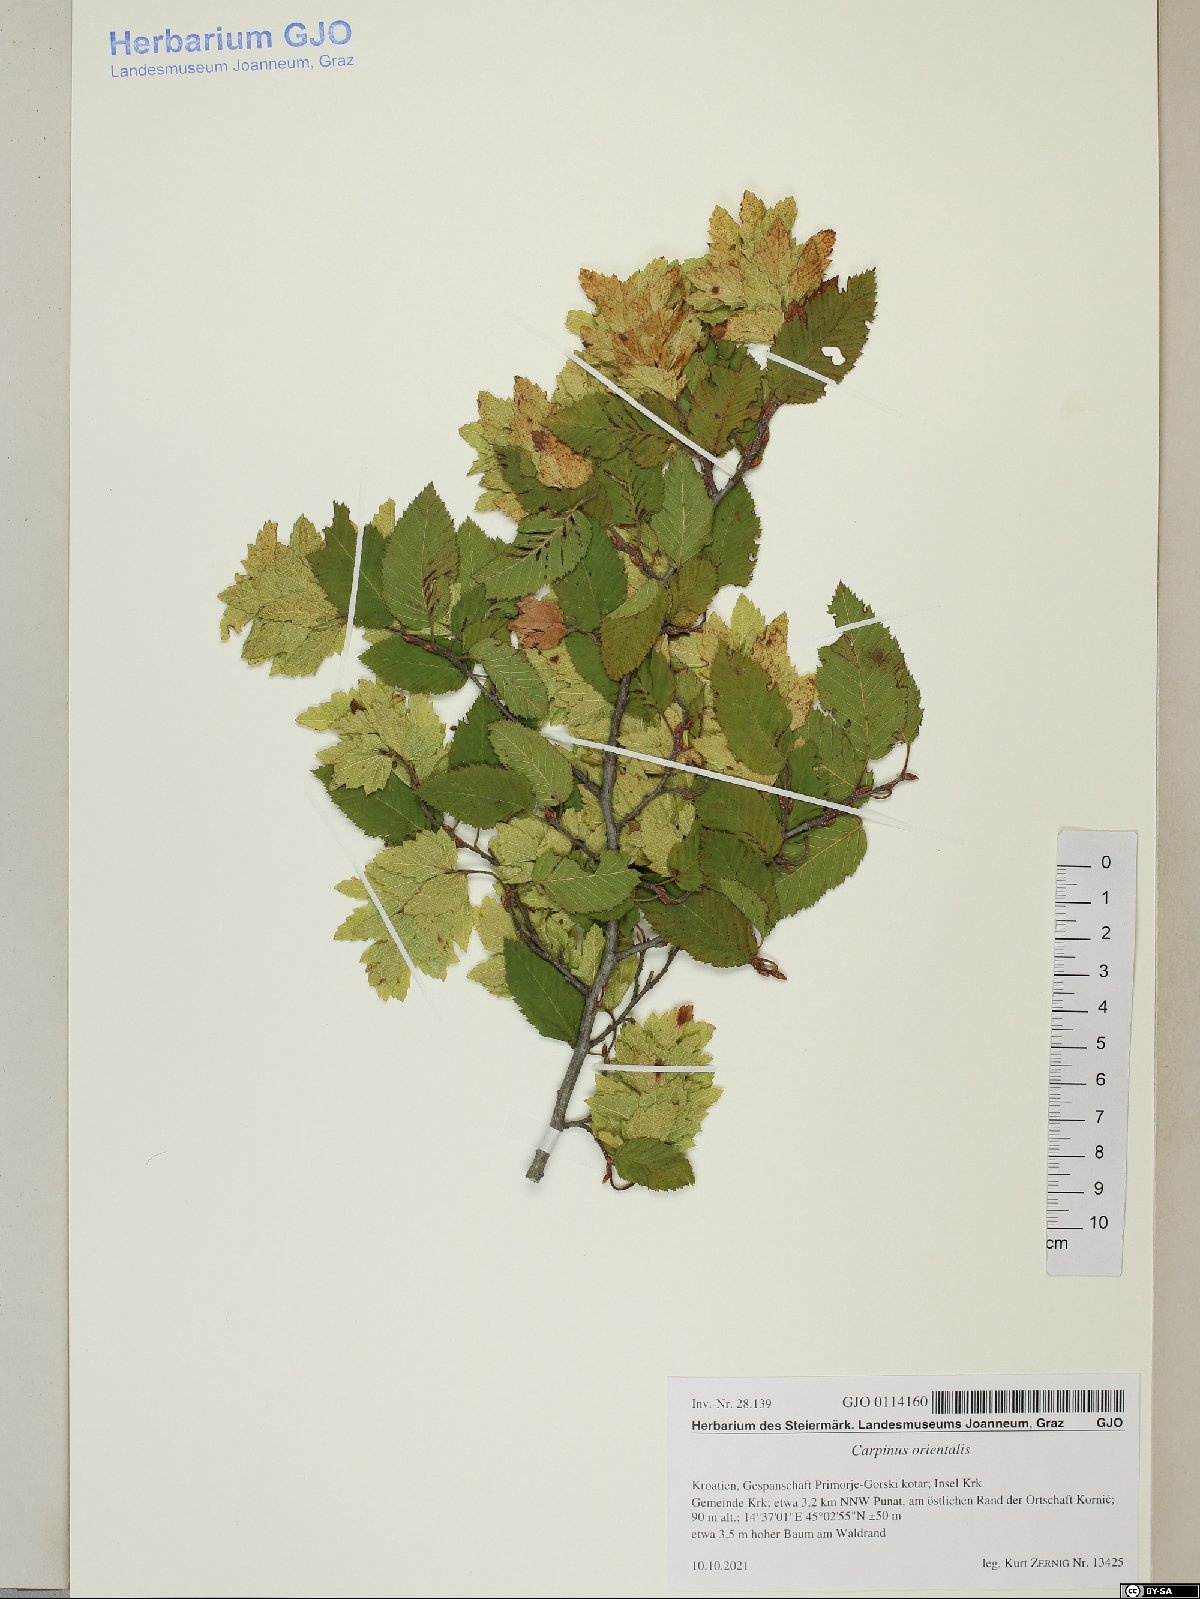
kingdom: Plantae
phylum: Tracheophyta
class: Magnoliopsida
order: Fagales
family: Betulaceae
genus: Carpinus
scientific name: Carpinus orientalis
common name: Eastern hornbeam
